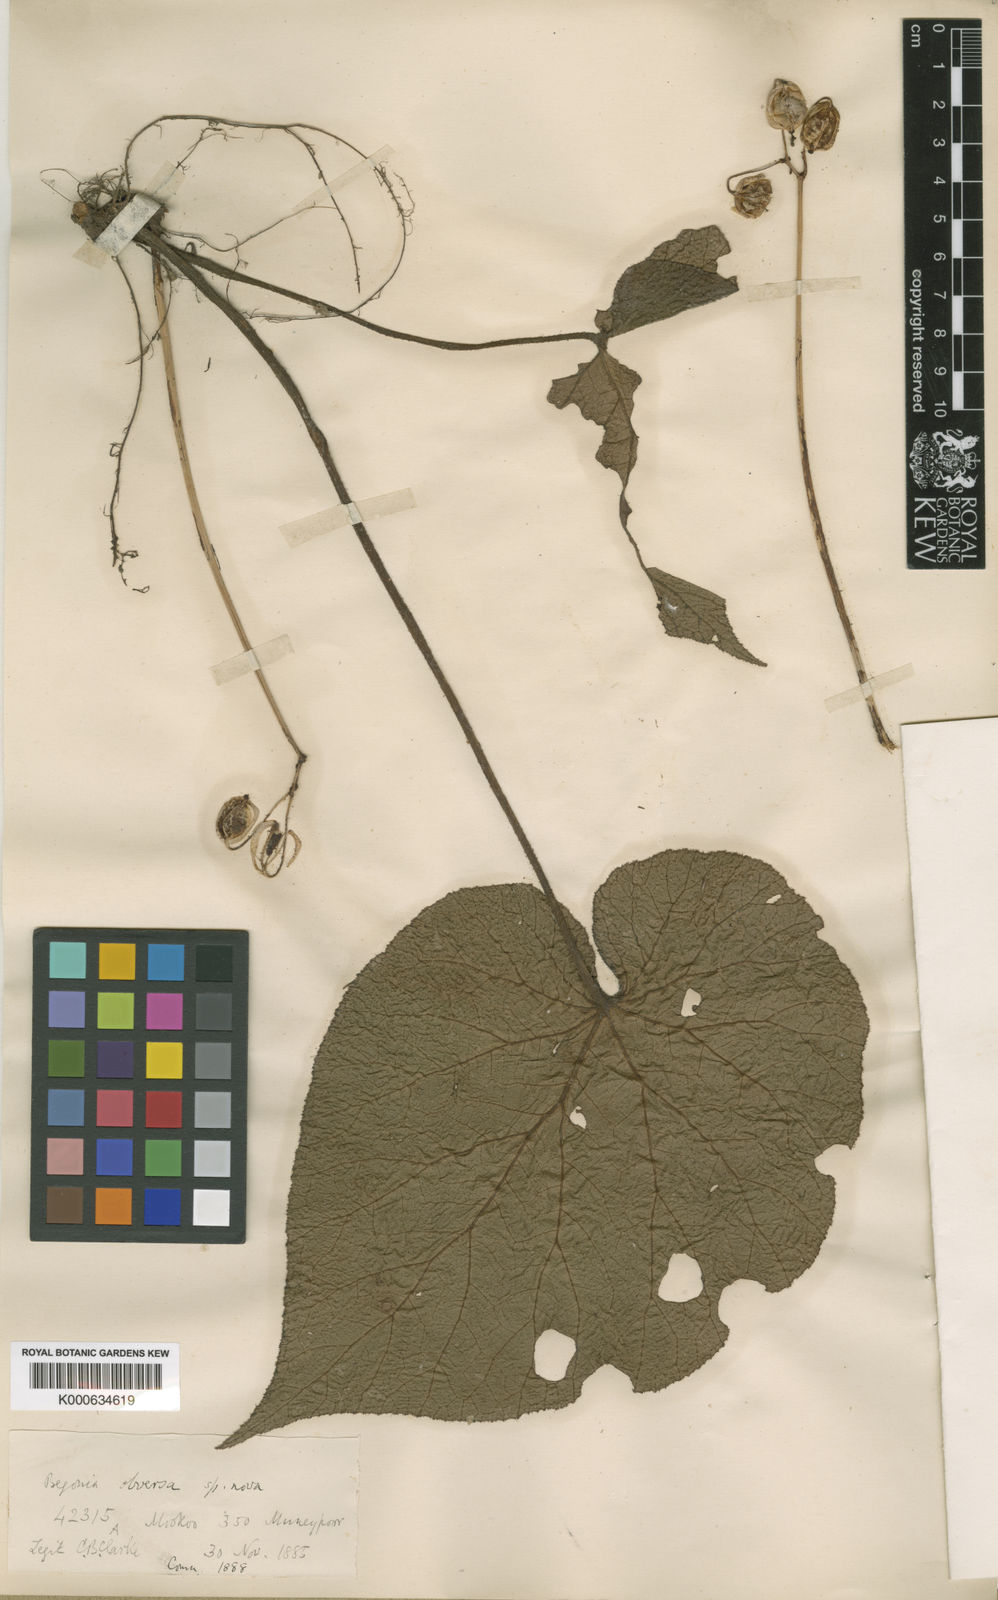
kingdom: Plantae
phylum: Tracheophyta
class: Magnoliopsida
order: Cucurbitales
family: Begoniaceae
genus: Begonia
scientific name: Begonia obversa
